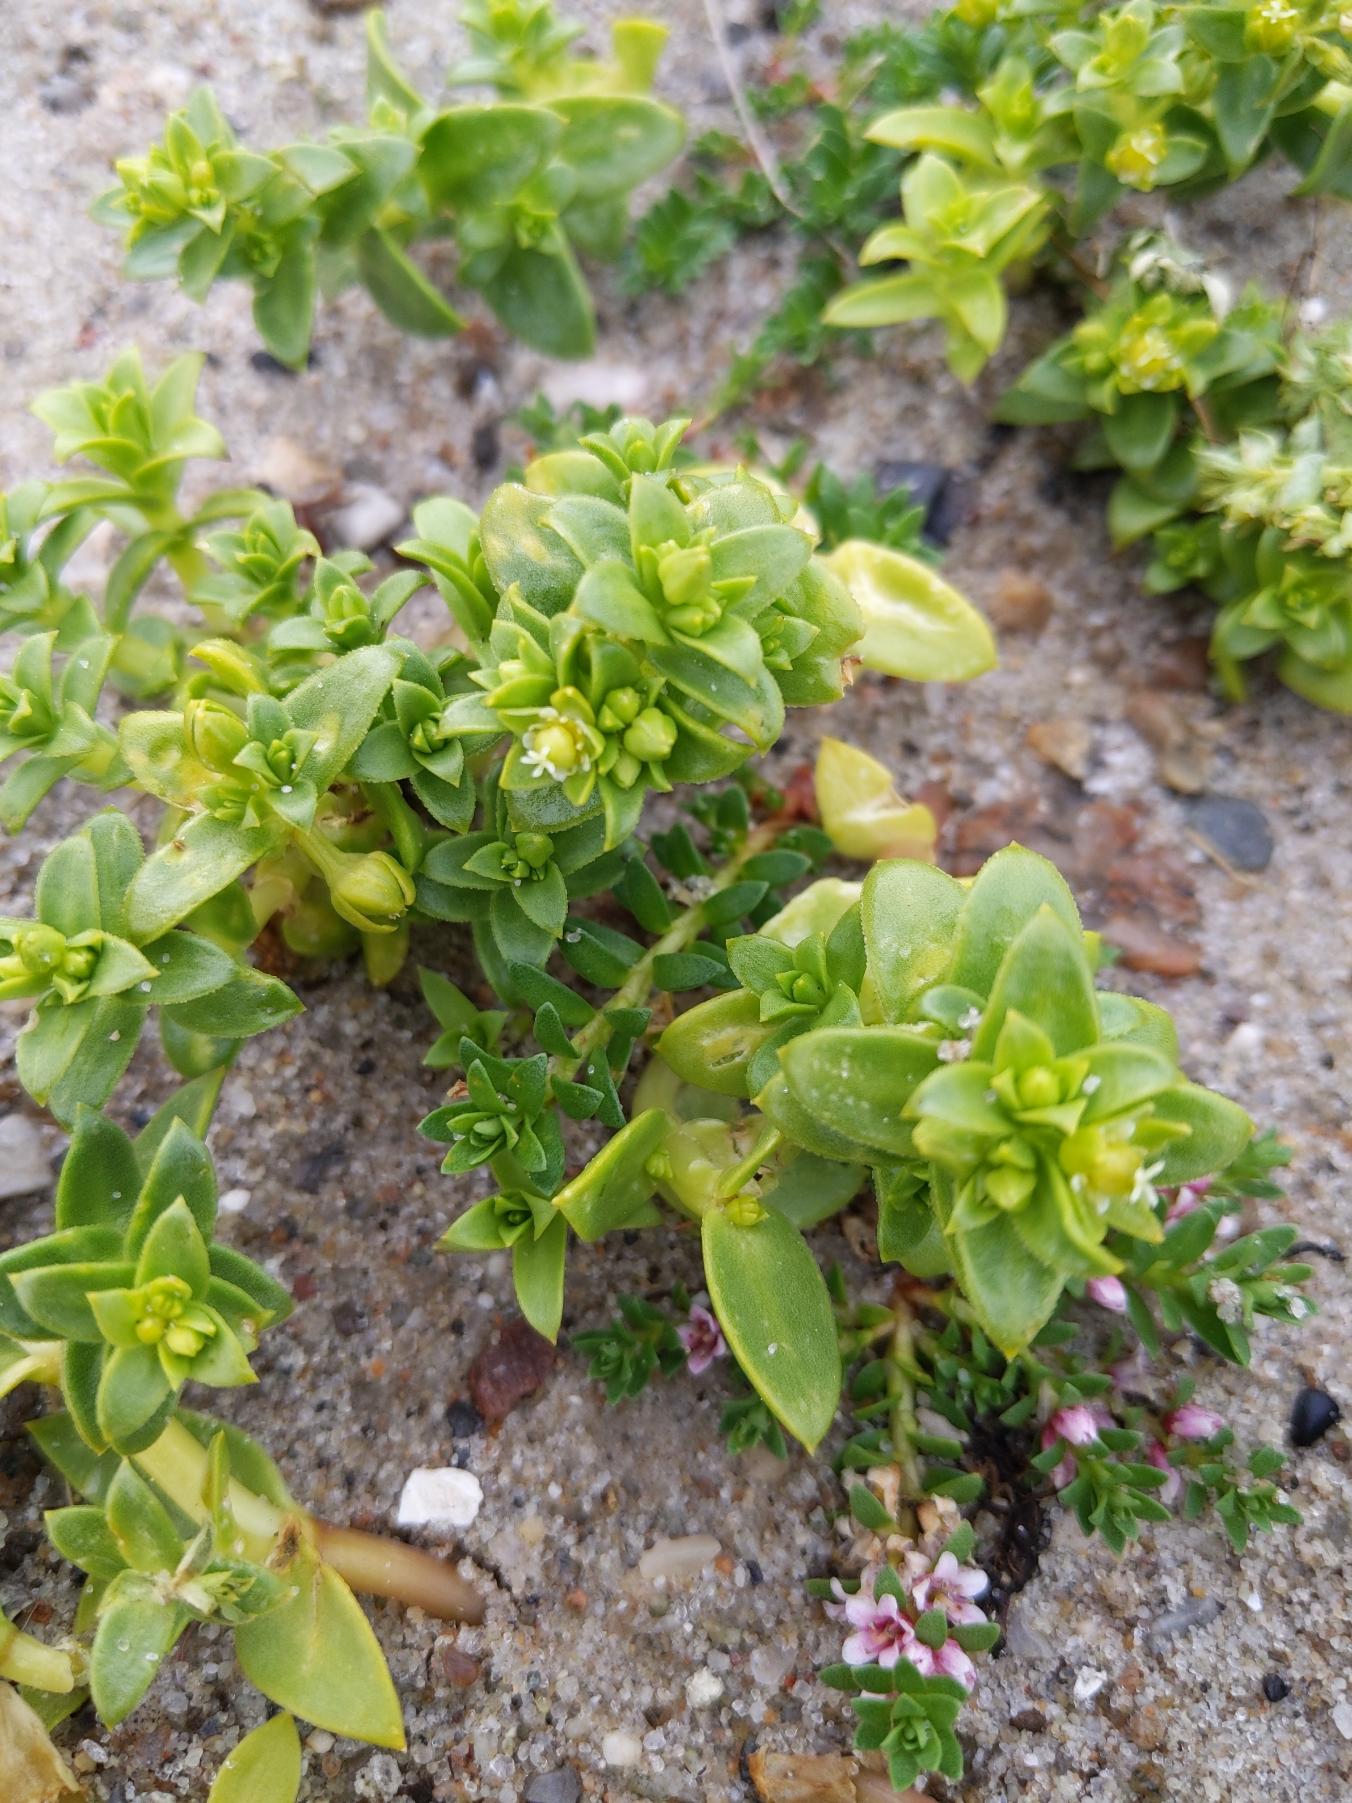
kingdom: Plantae
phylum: Tracheophyta
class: Magnoliopsida
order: Caryophyllales
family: Caryophyllaceae
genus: Honckenya
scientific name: Honckenya peploides
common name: Strandarve
